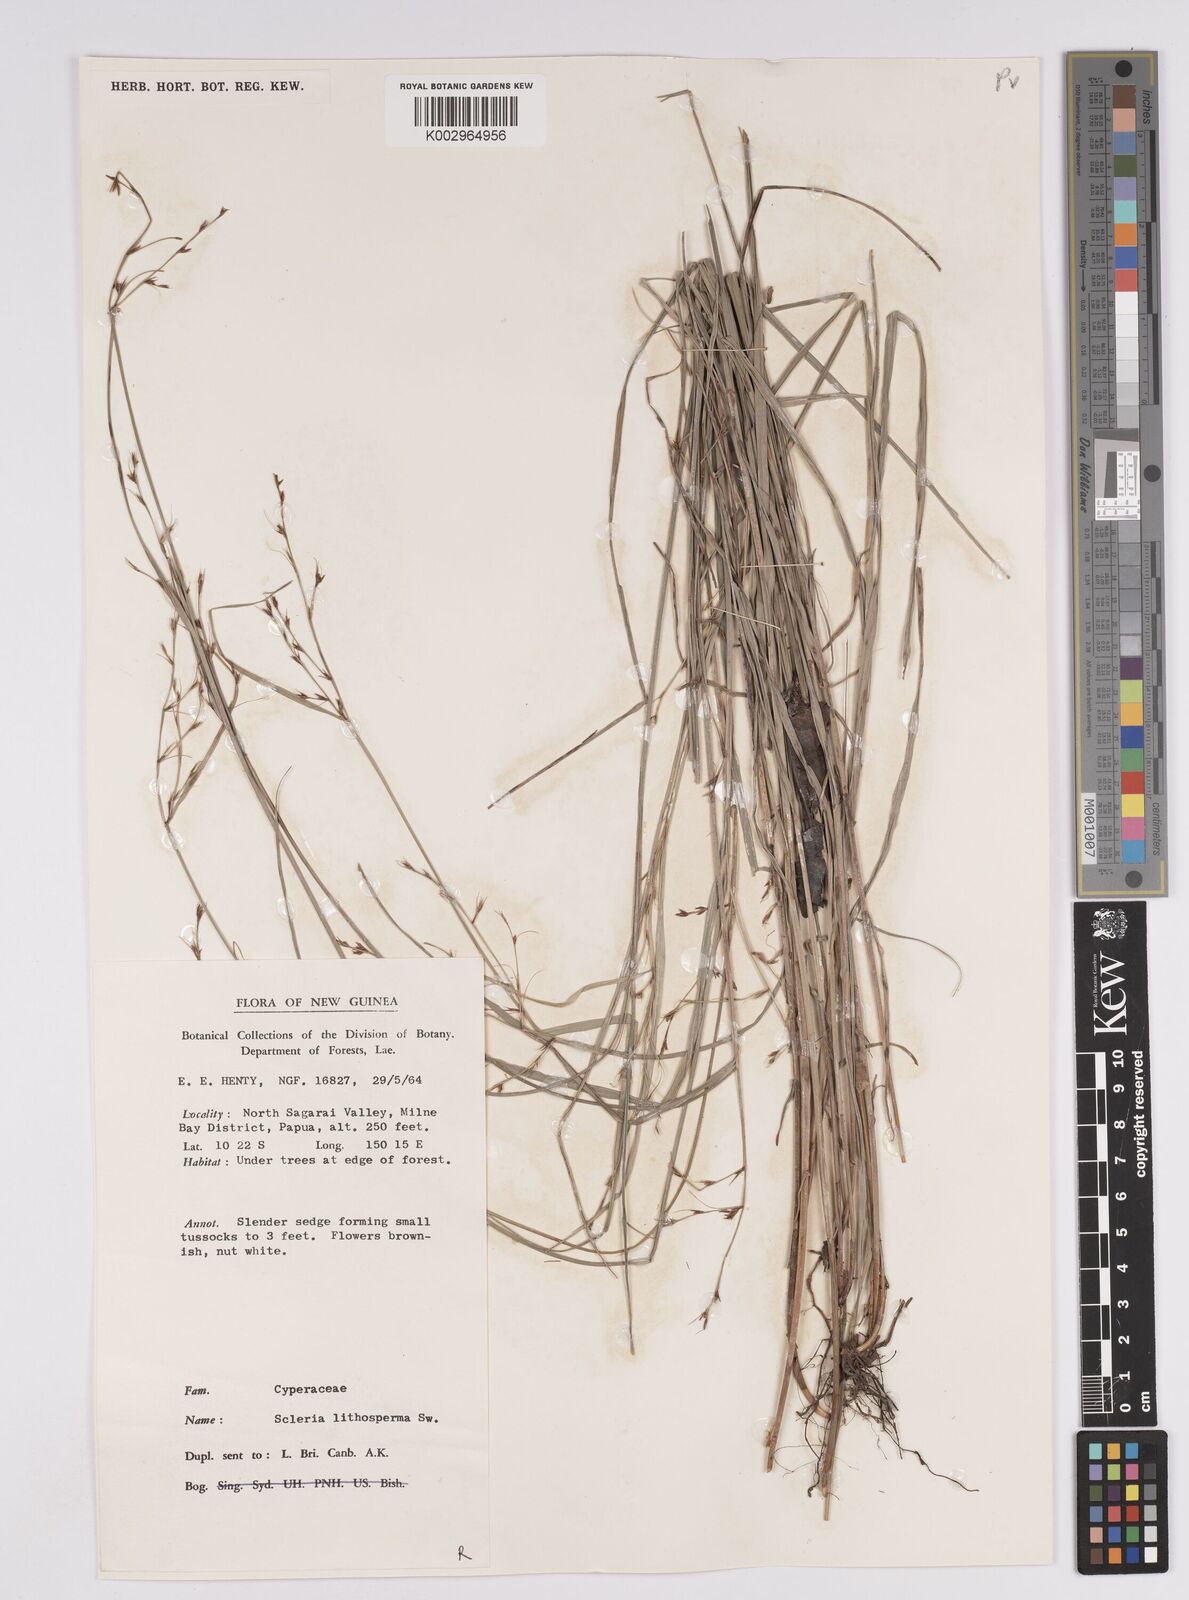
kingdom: Plantae
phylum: Tracheophyta
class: Liliopsida
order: Poales
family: Cyperaceae
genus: Scleria
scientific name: Scleria lithosperma
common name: Florida keys nut-rush
